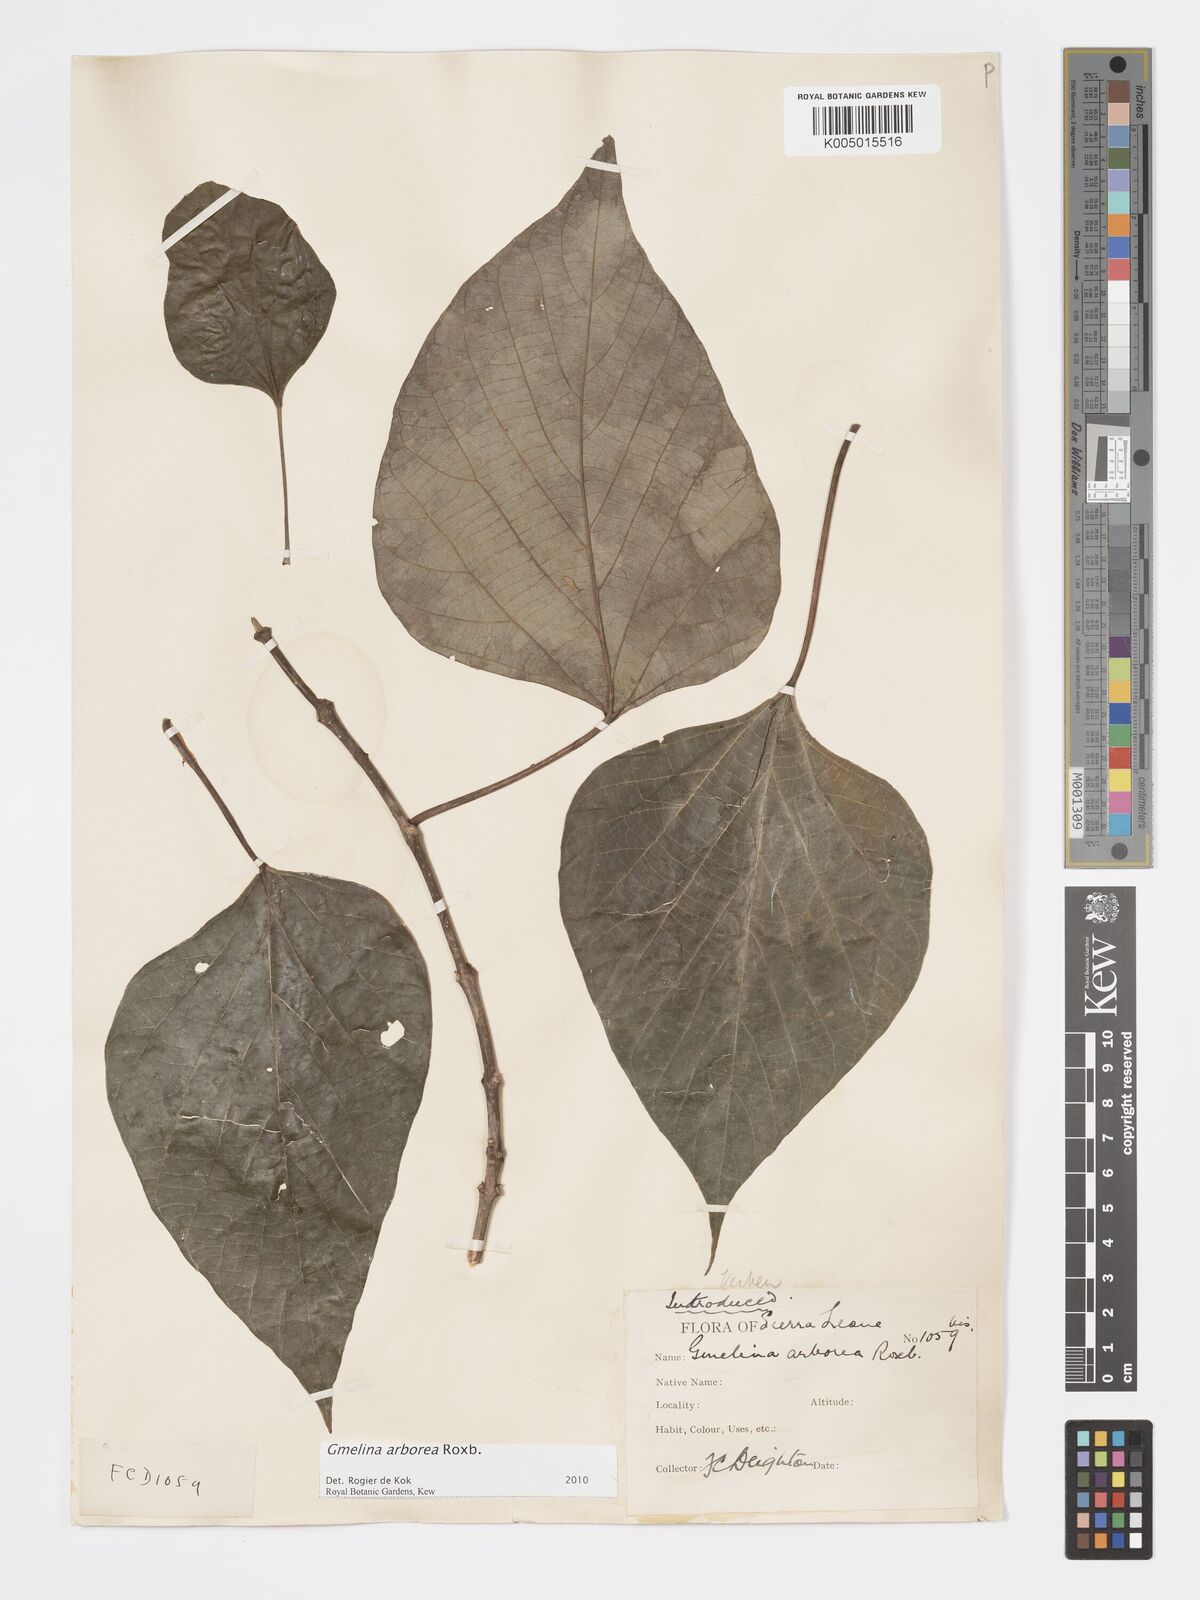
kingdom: Plantae
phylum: Tracheophyta
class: Magnoliopsida
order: Lamiales
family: Lamiaceae
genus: Gmelina
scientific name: Gmelina arborea
